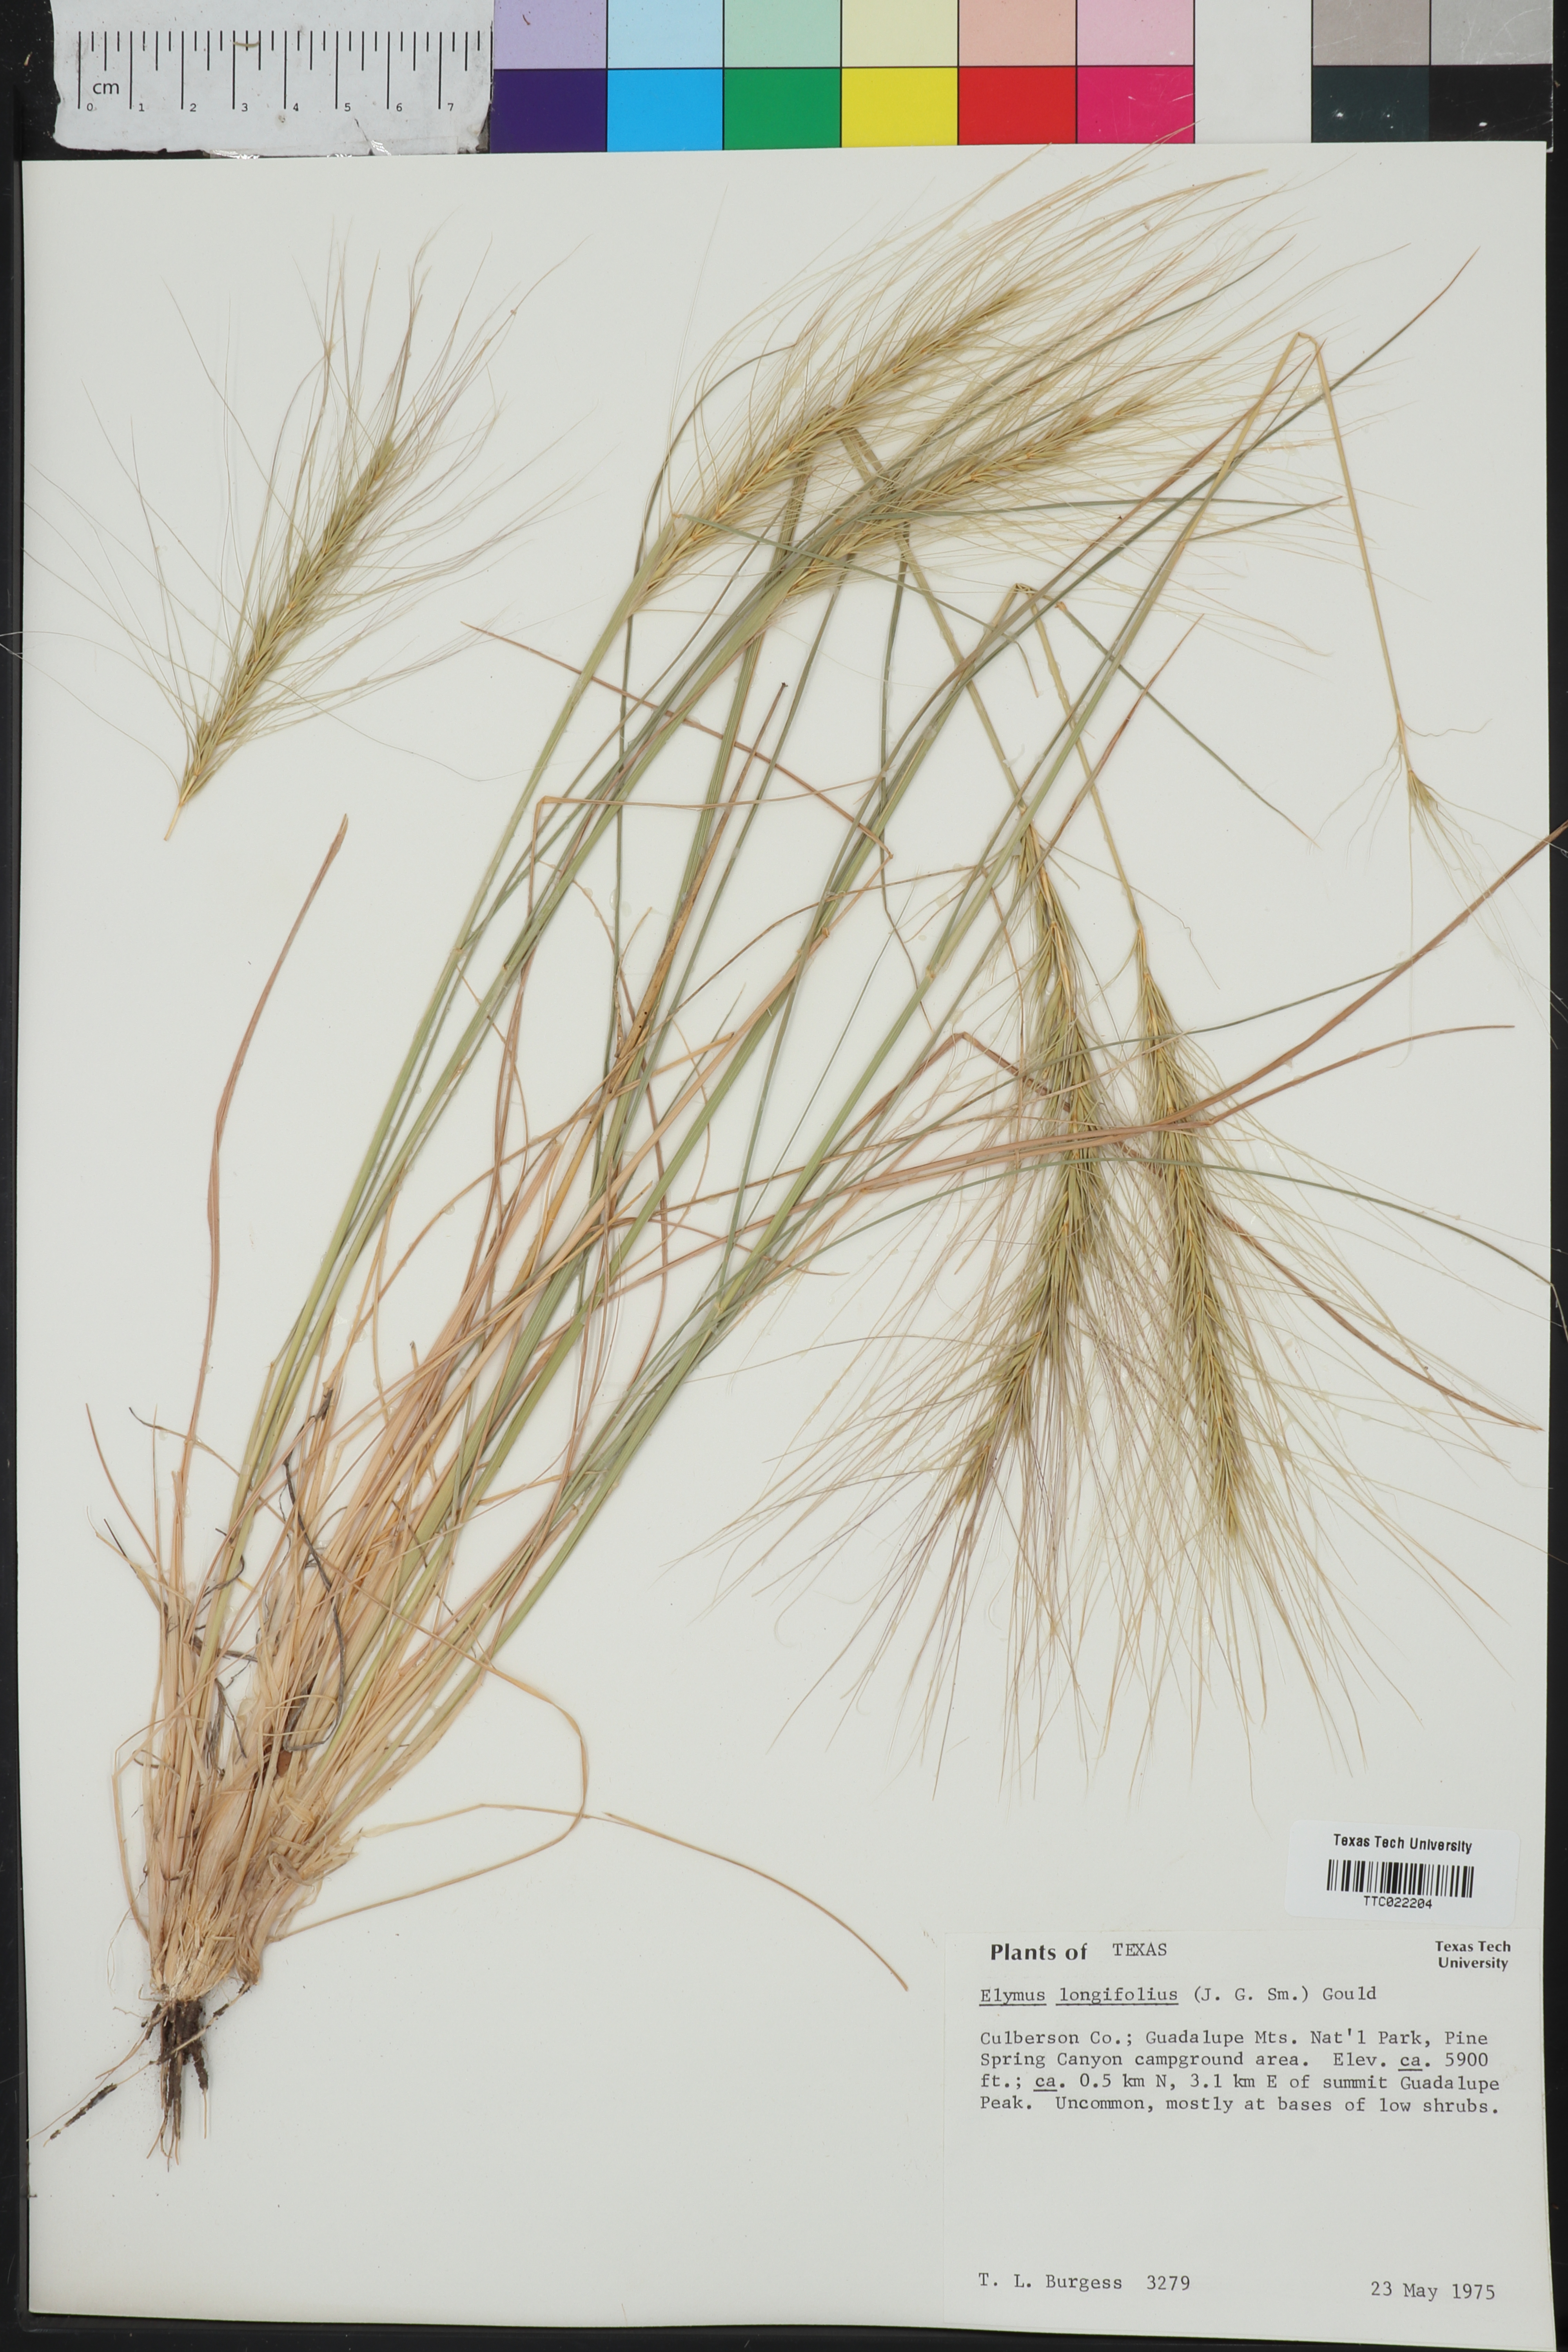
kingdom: Plantae
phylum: Tracheophyta
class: Liliopsida
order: Poales
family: Poaceae
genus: Elymus
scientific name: Elymus longifolius
